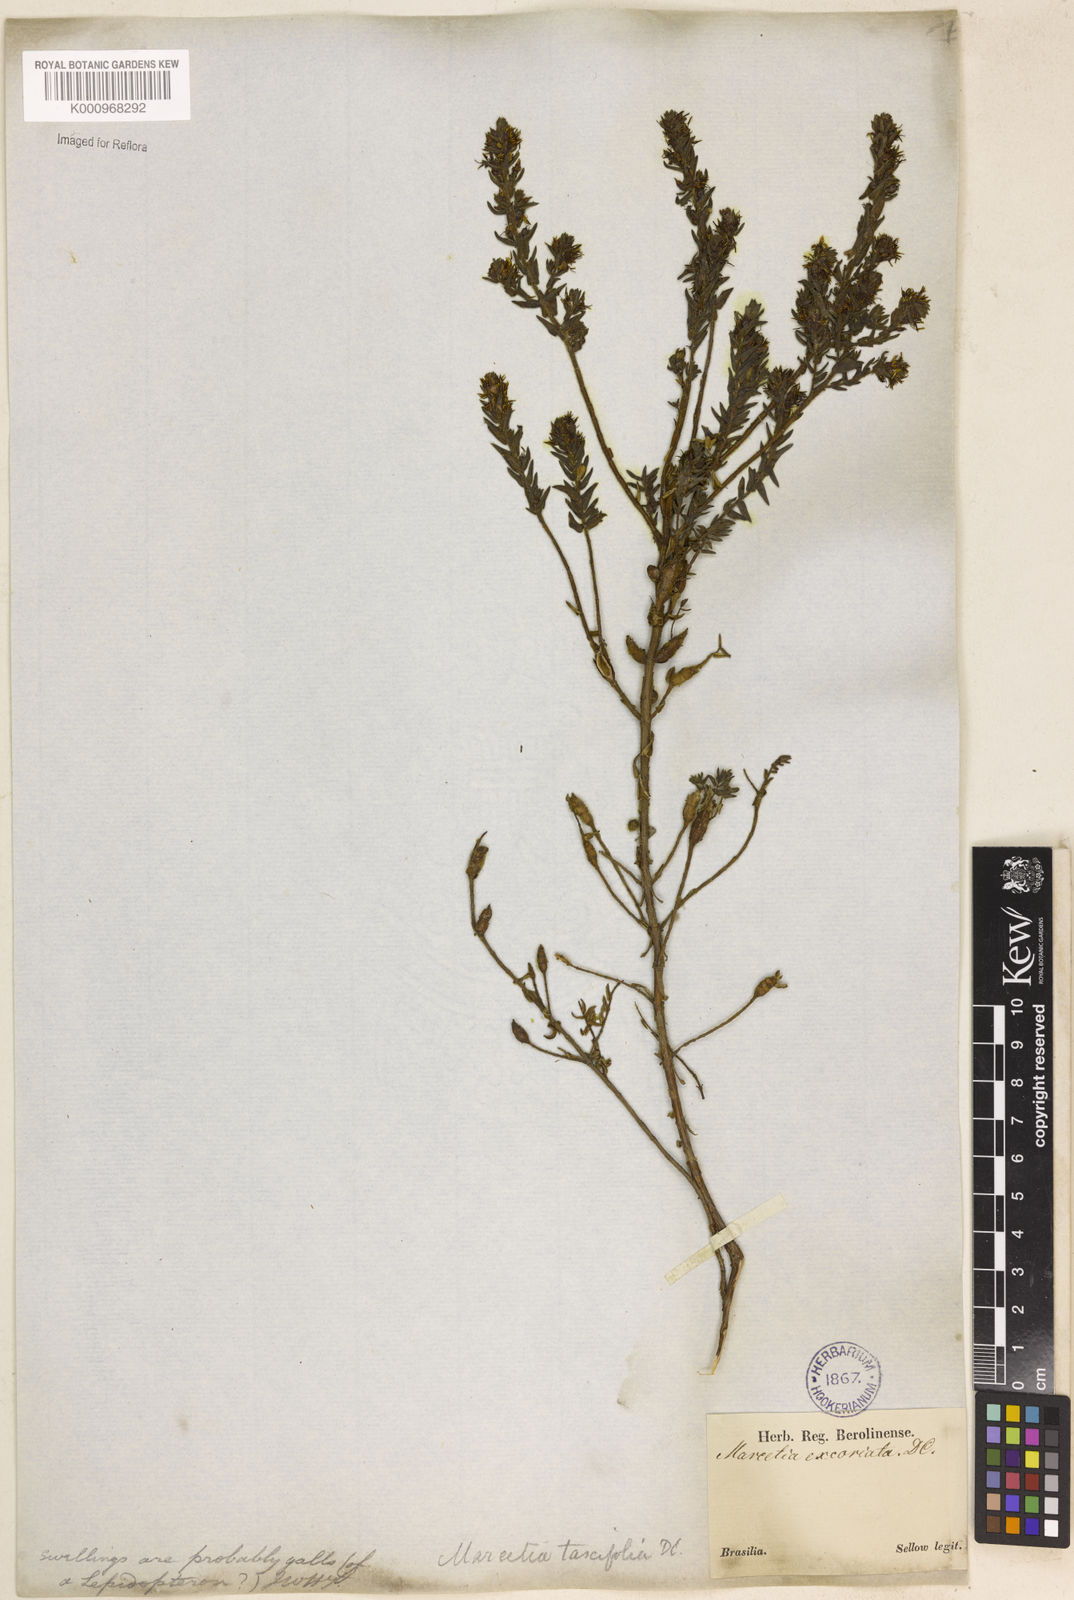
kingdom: Plantae
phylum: Tracheophyta
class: Magnoliopsida
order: Myrtales
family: Melastomataceae
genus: Marcetia
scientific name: Marcetia taxifolia
